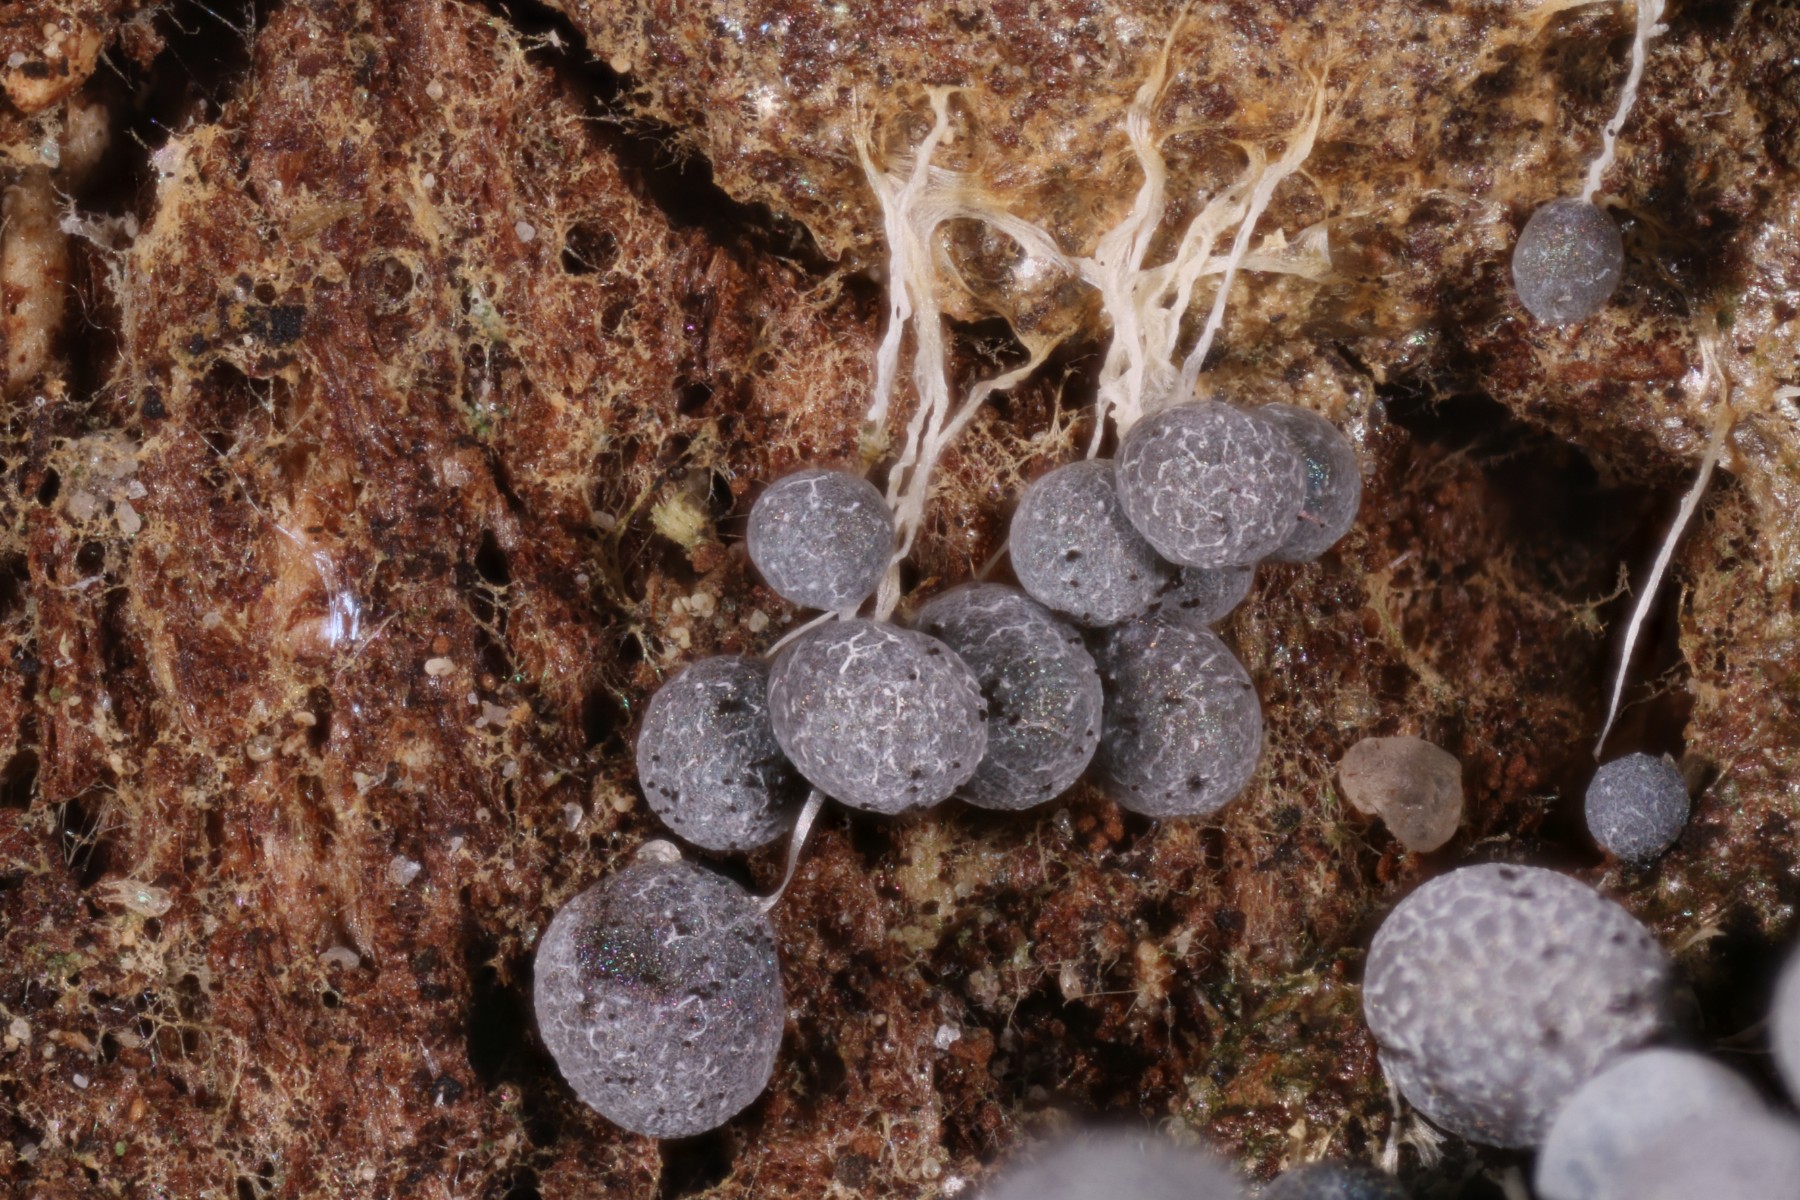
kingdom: Protozoa
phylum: Mycetozoa
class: Myxomycetes
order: Physarales
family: Physaraceae
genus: Badhamia
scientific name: Badhamia utricularis
